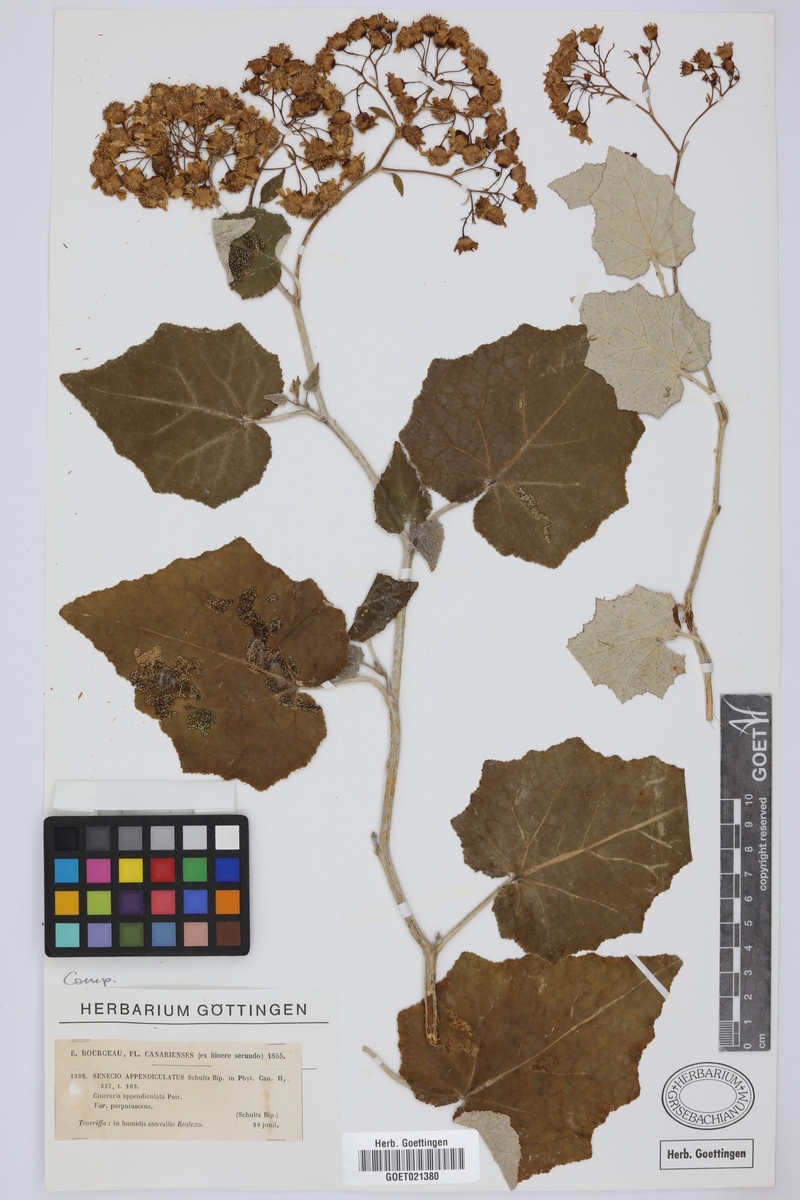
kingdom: Plantae
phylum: Tracheophyta
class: Magnoliopsida
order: Asterales
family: Asteraceae
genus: Senecio
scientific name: Senecio appendiculatus
